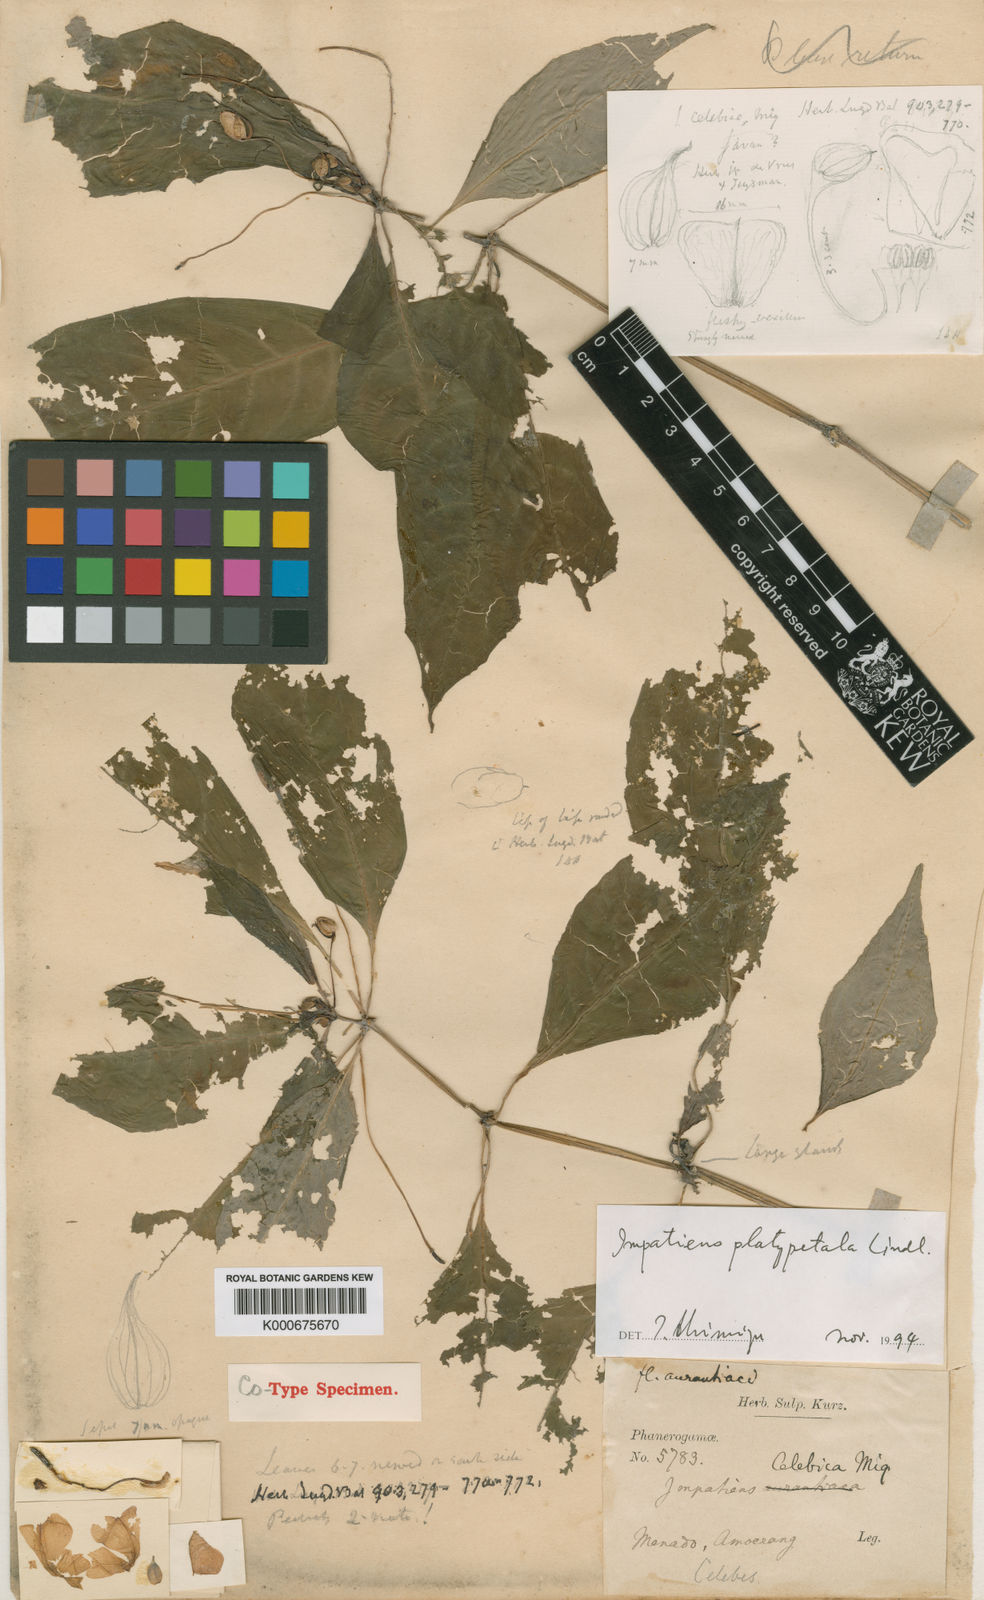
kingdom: Plantae
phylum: Tracheophyta
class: Magnoliopsida
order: Ericales
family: Balsaminaceae
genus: Impatiens
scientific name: Impatiens platypetala
